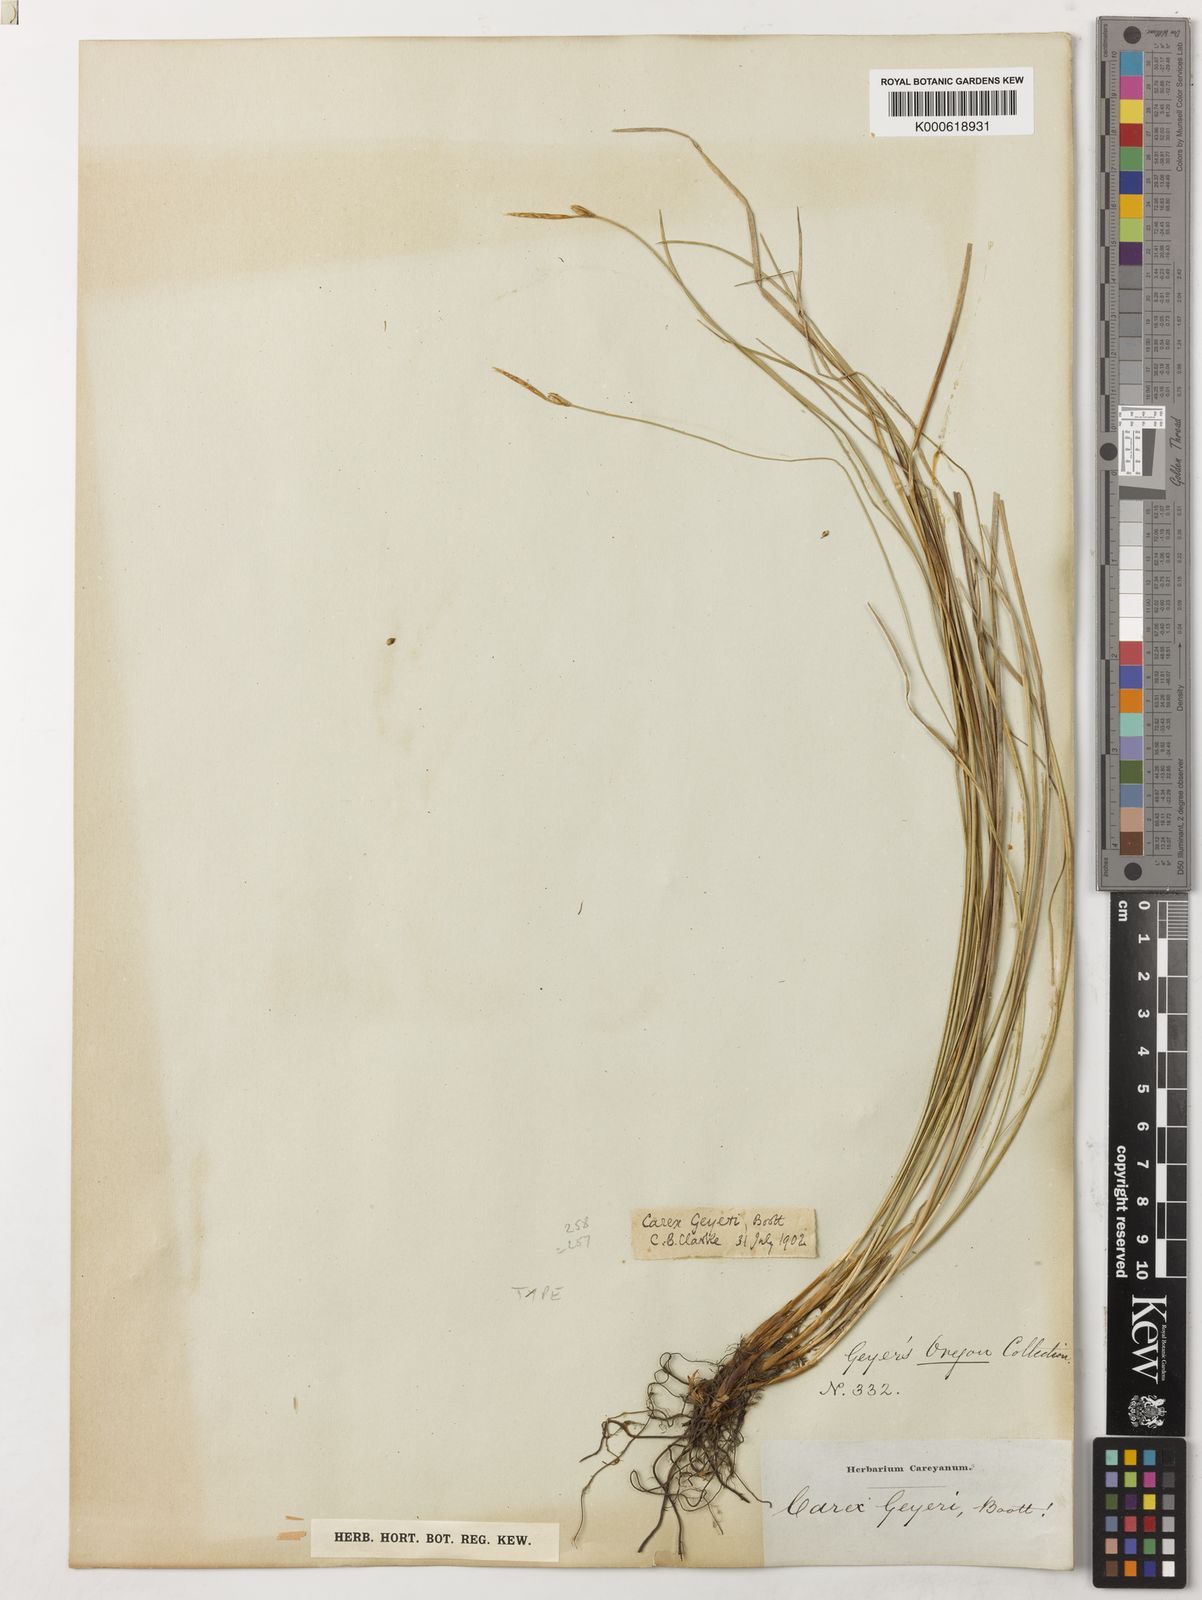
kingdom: Plantae
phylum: Tracheophyta
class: Liliopsida
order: Poales
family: Cyperaceae
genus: Carex
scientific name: Carex geyeri
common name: Elk sedge
